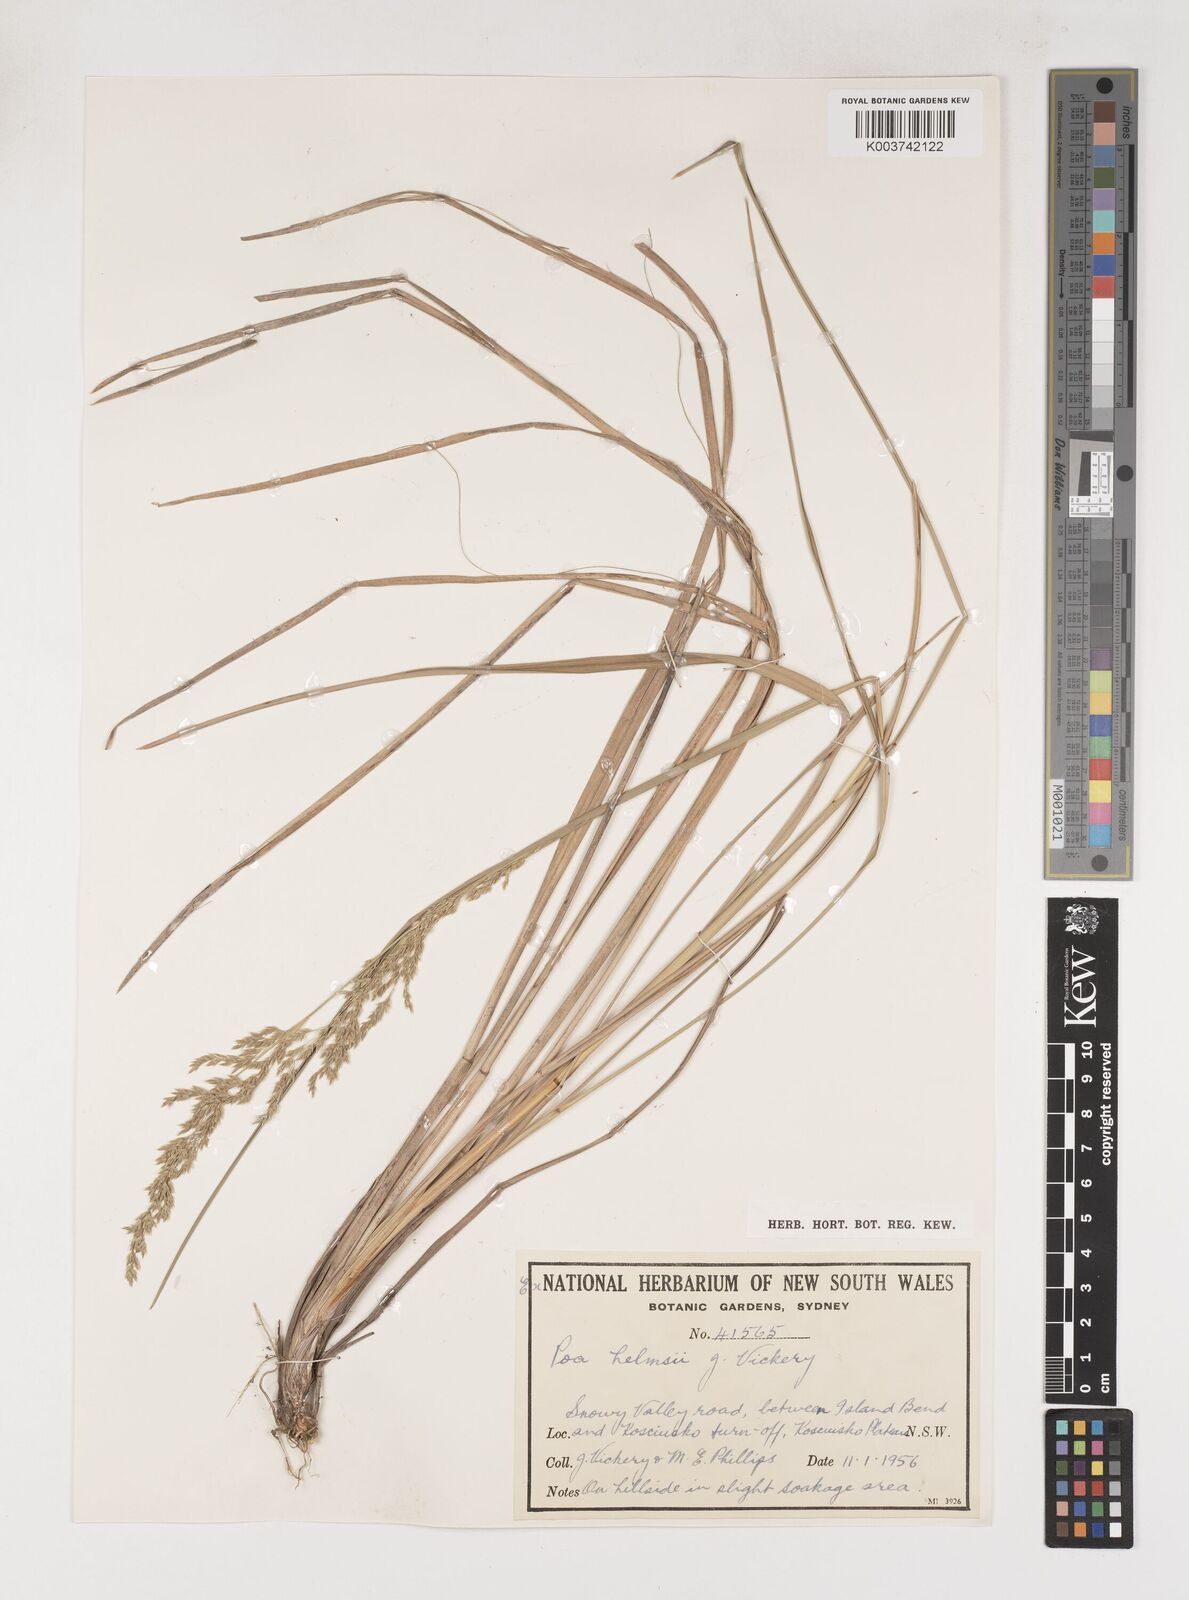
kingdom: Plantae
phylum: Tracheophyta
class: Liliopsida
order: Poales
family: Poaceae
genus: Poa
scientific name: Poa helmsii
